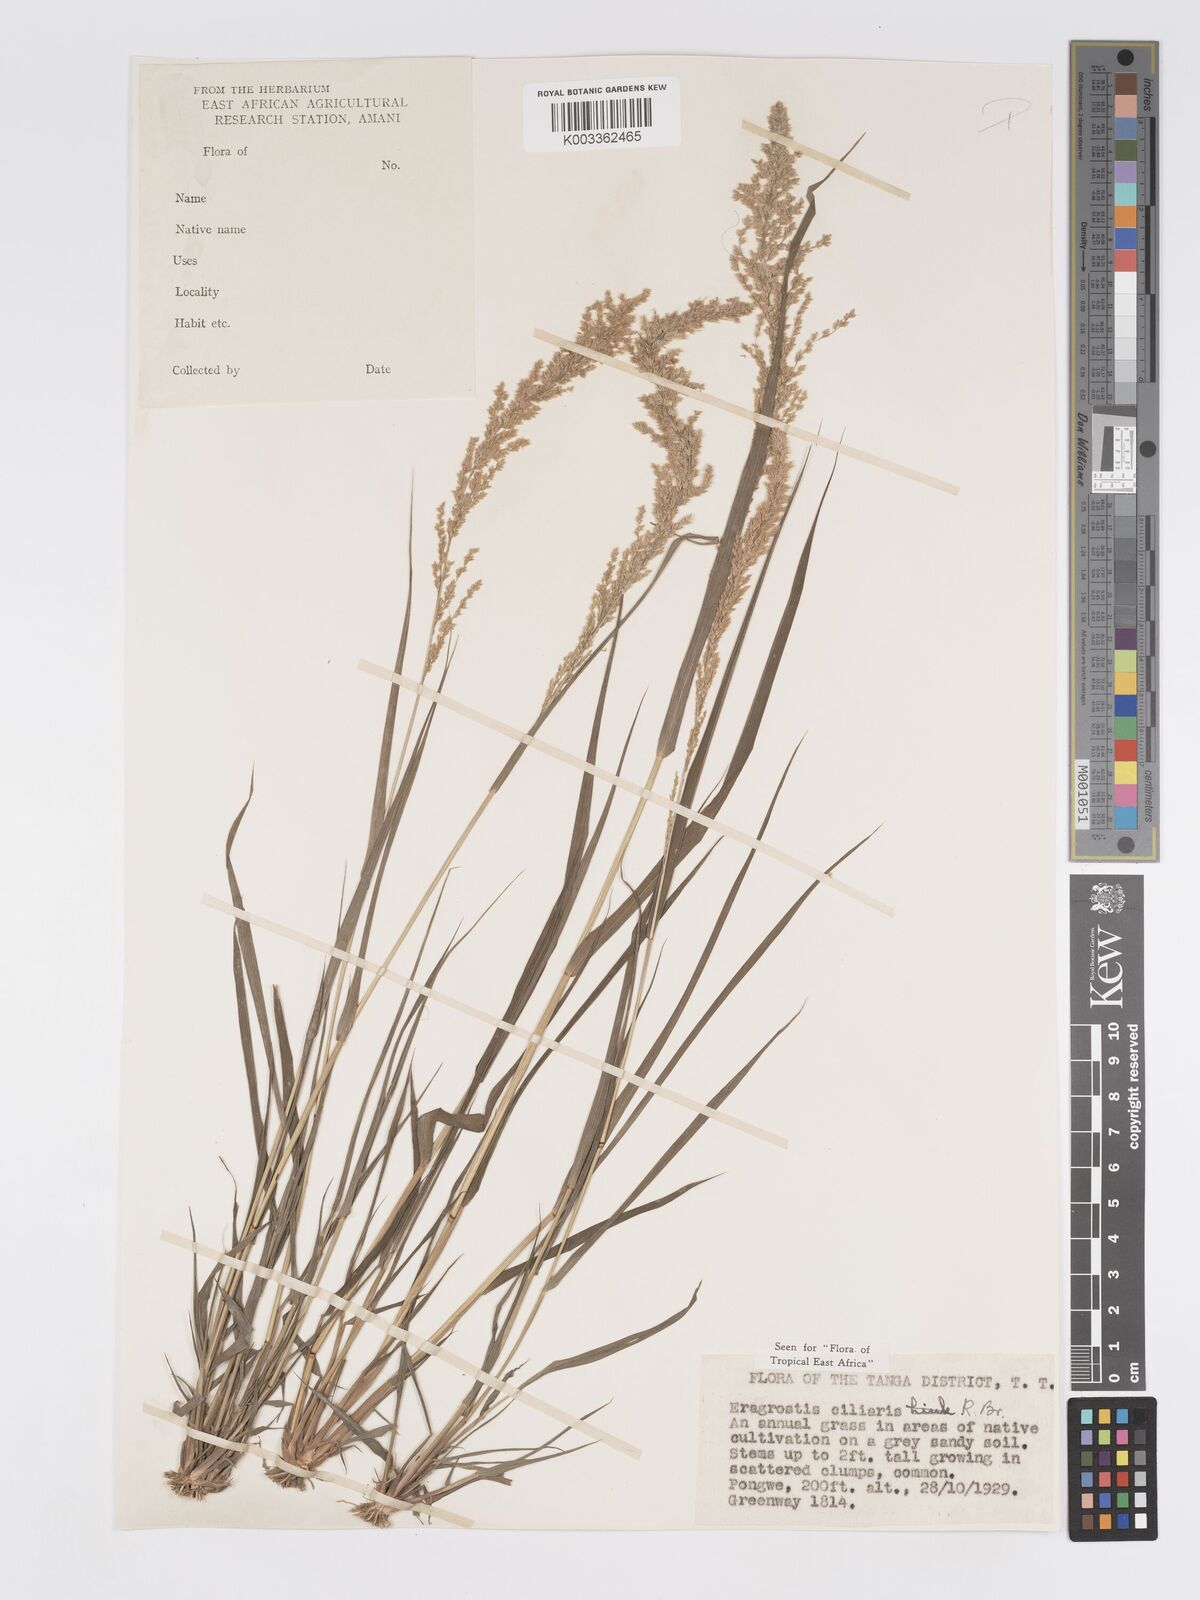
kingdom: Plantae
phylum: Tracheophyta
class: Liliopsida
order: Poales
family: Poaceae
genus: Eragrostis
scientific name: Eragrostis ciliaris
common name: Gophertail lovegrass
